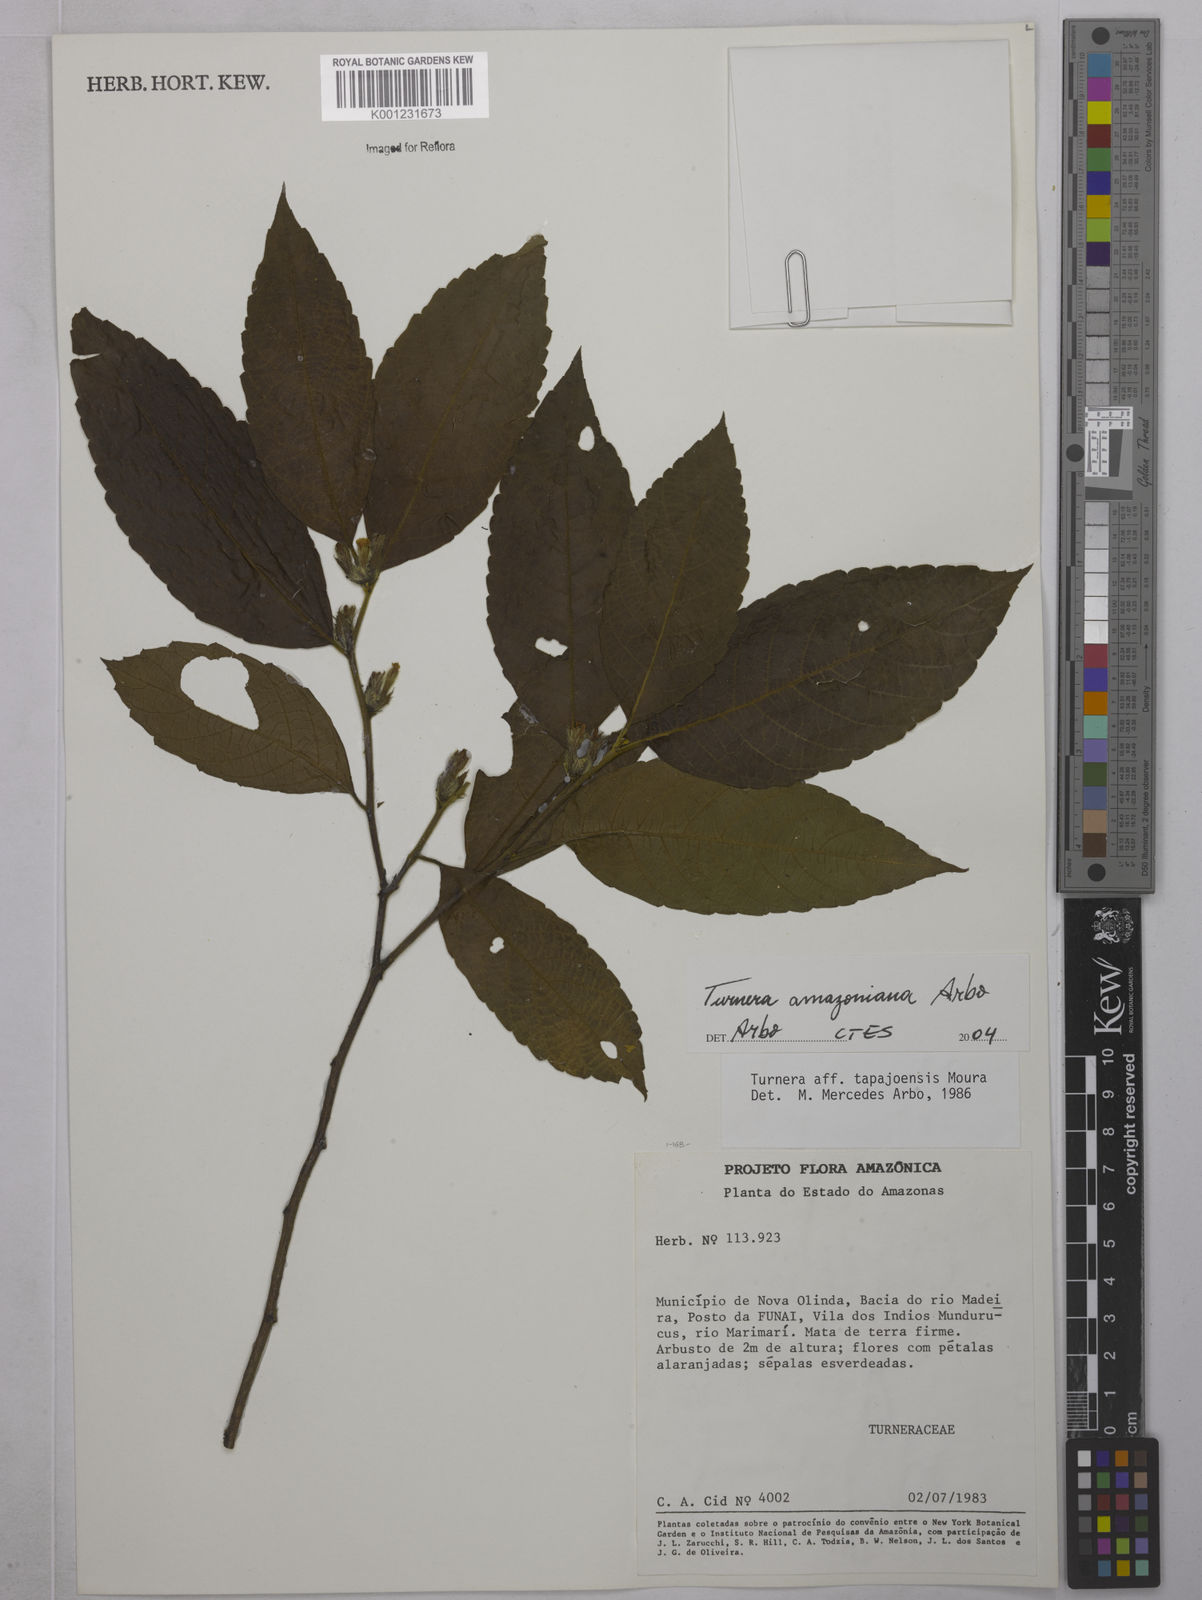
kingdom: Plantae
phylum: Tracheophyta
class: Magnoliopsida
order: Malpighiales
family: Turneraceae
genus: Turnera
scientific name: Turnera
